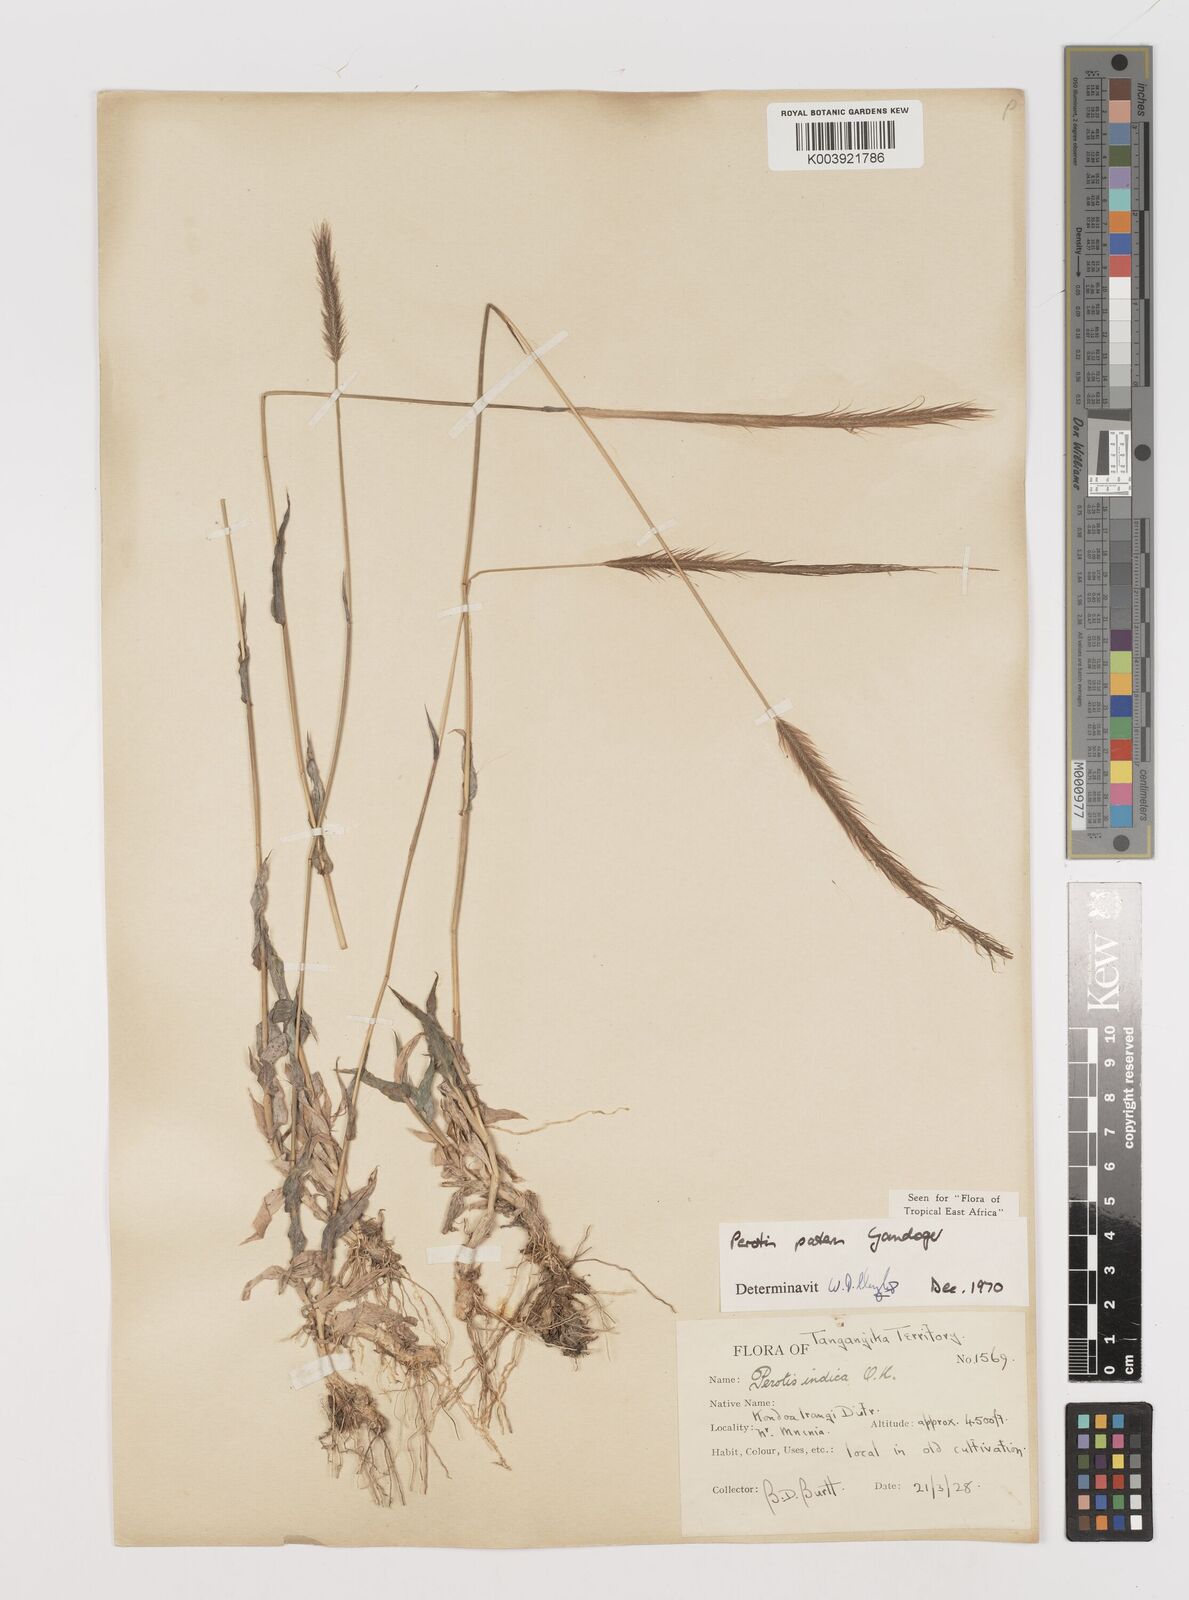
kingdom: Plantae
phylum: Tracheophyta
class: Liliopsida
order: Poales
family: Poaceae
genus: Perotis
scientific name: Perotis patens
